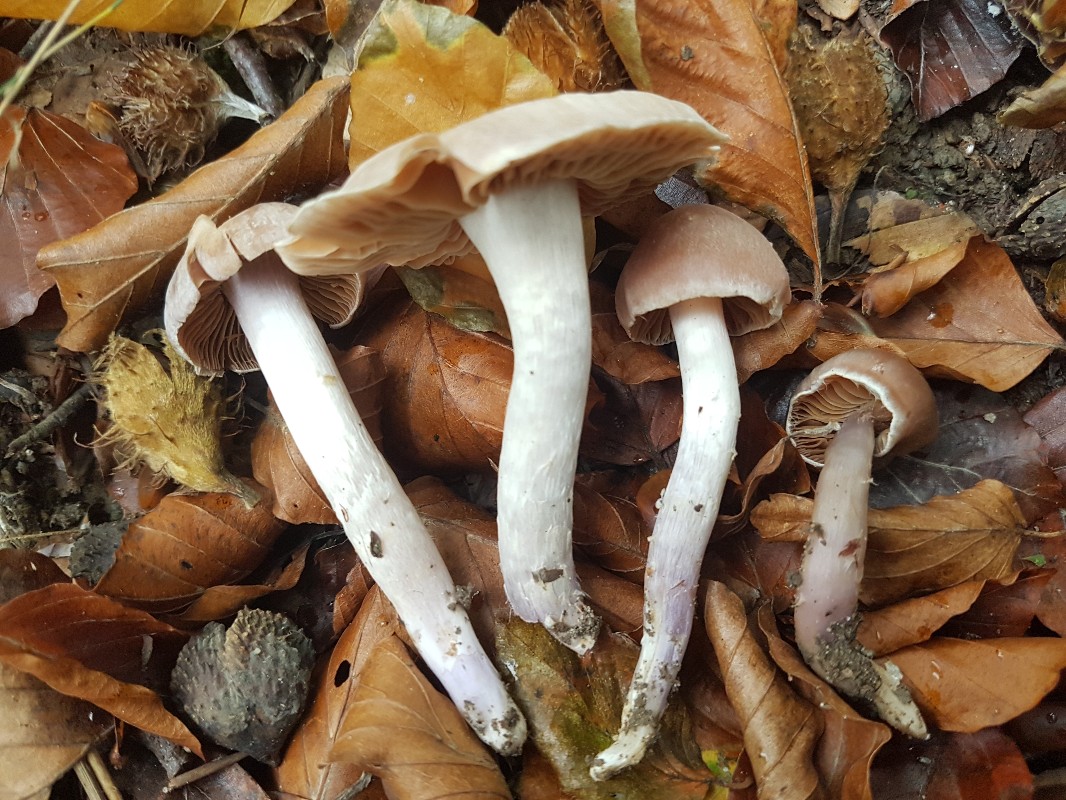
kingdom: Fungi
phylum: Basidiomycota
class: Agaricomycetes
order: Agaricales
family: Cortinariaceae
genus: Cortinarius
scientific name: Cortinarius cagei
